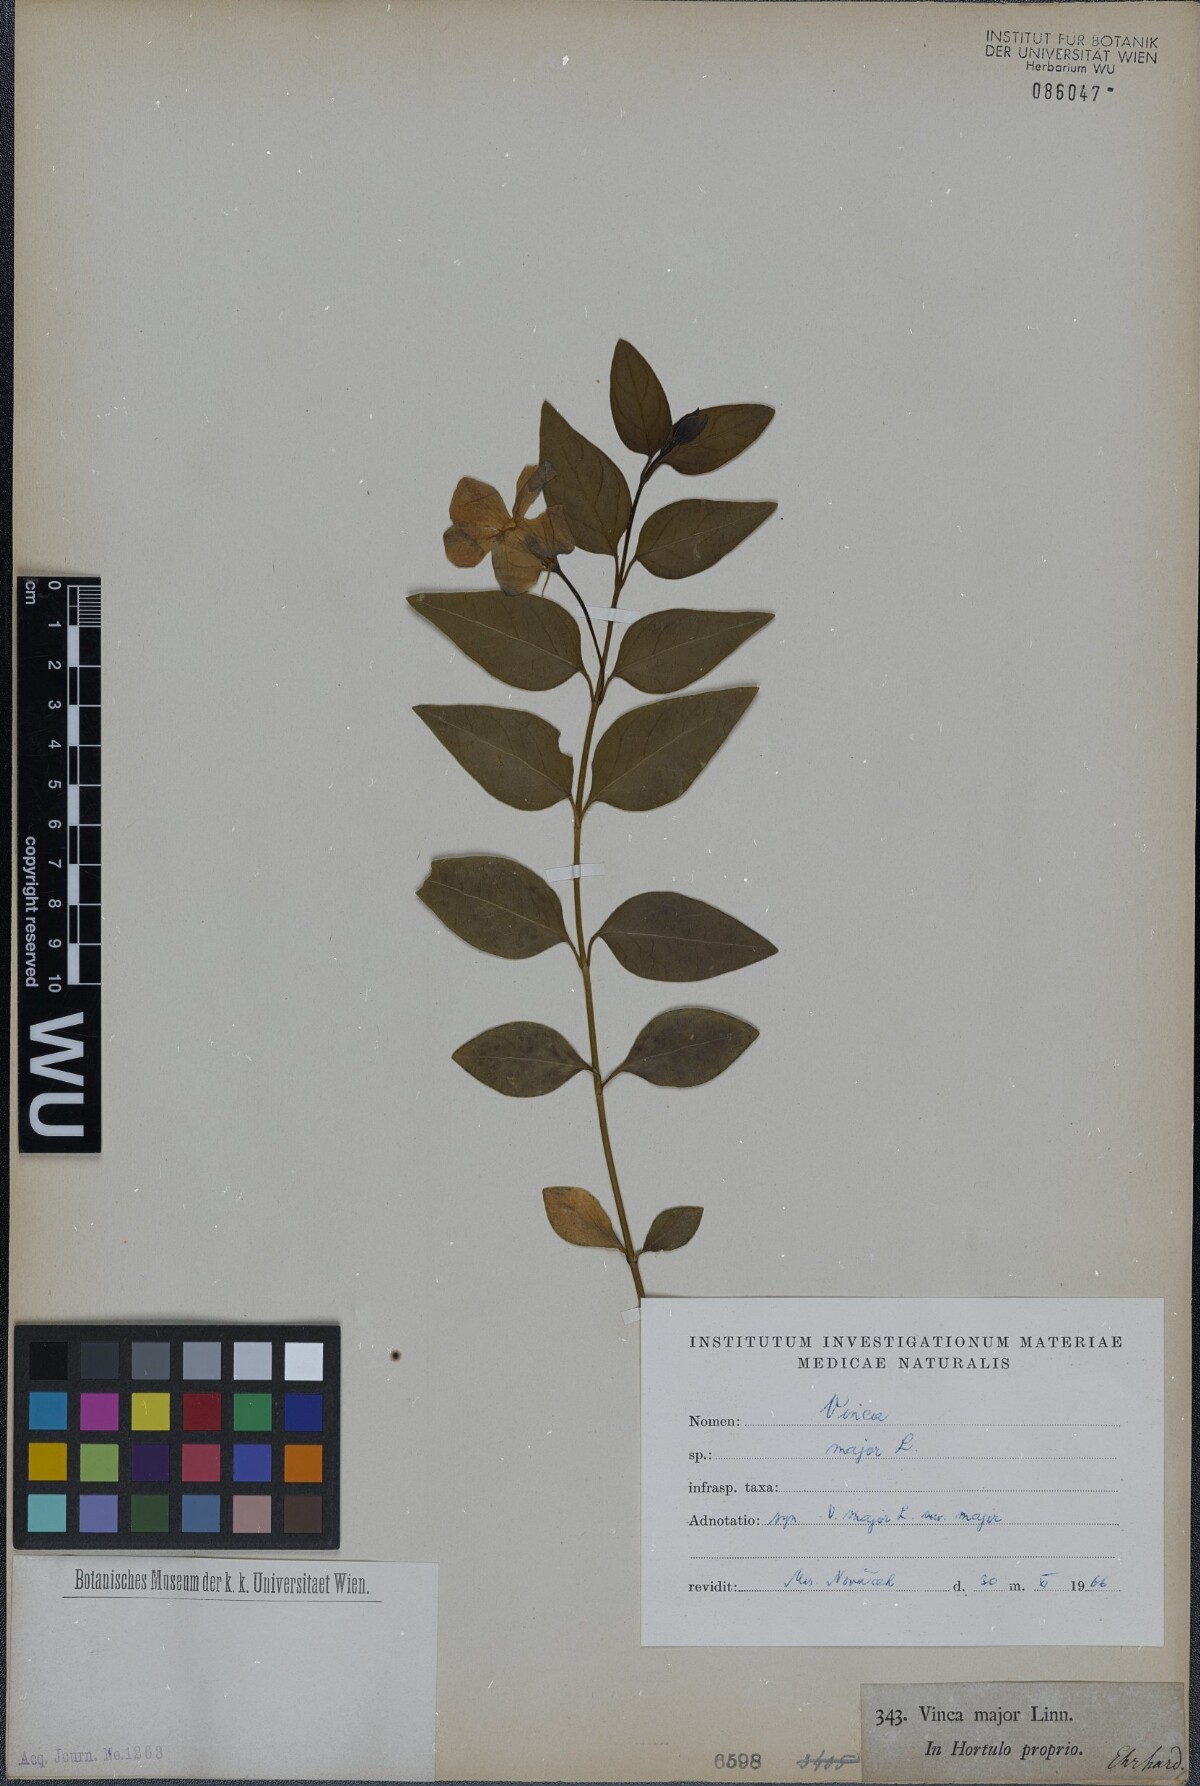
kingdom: Plantae
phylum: Tracheophyta
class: Magnoliopsida
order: Gentianales
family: Apocynaceae
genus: Vinca
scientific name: Vinca major
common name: Greater periwinkle
